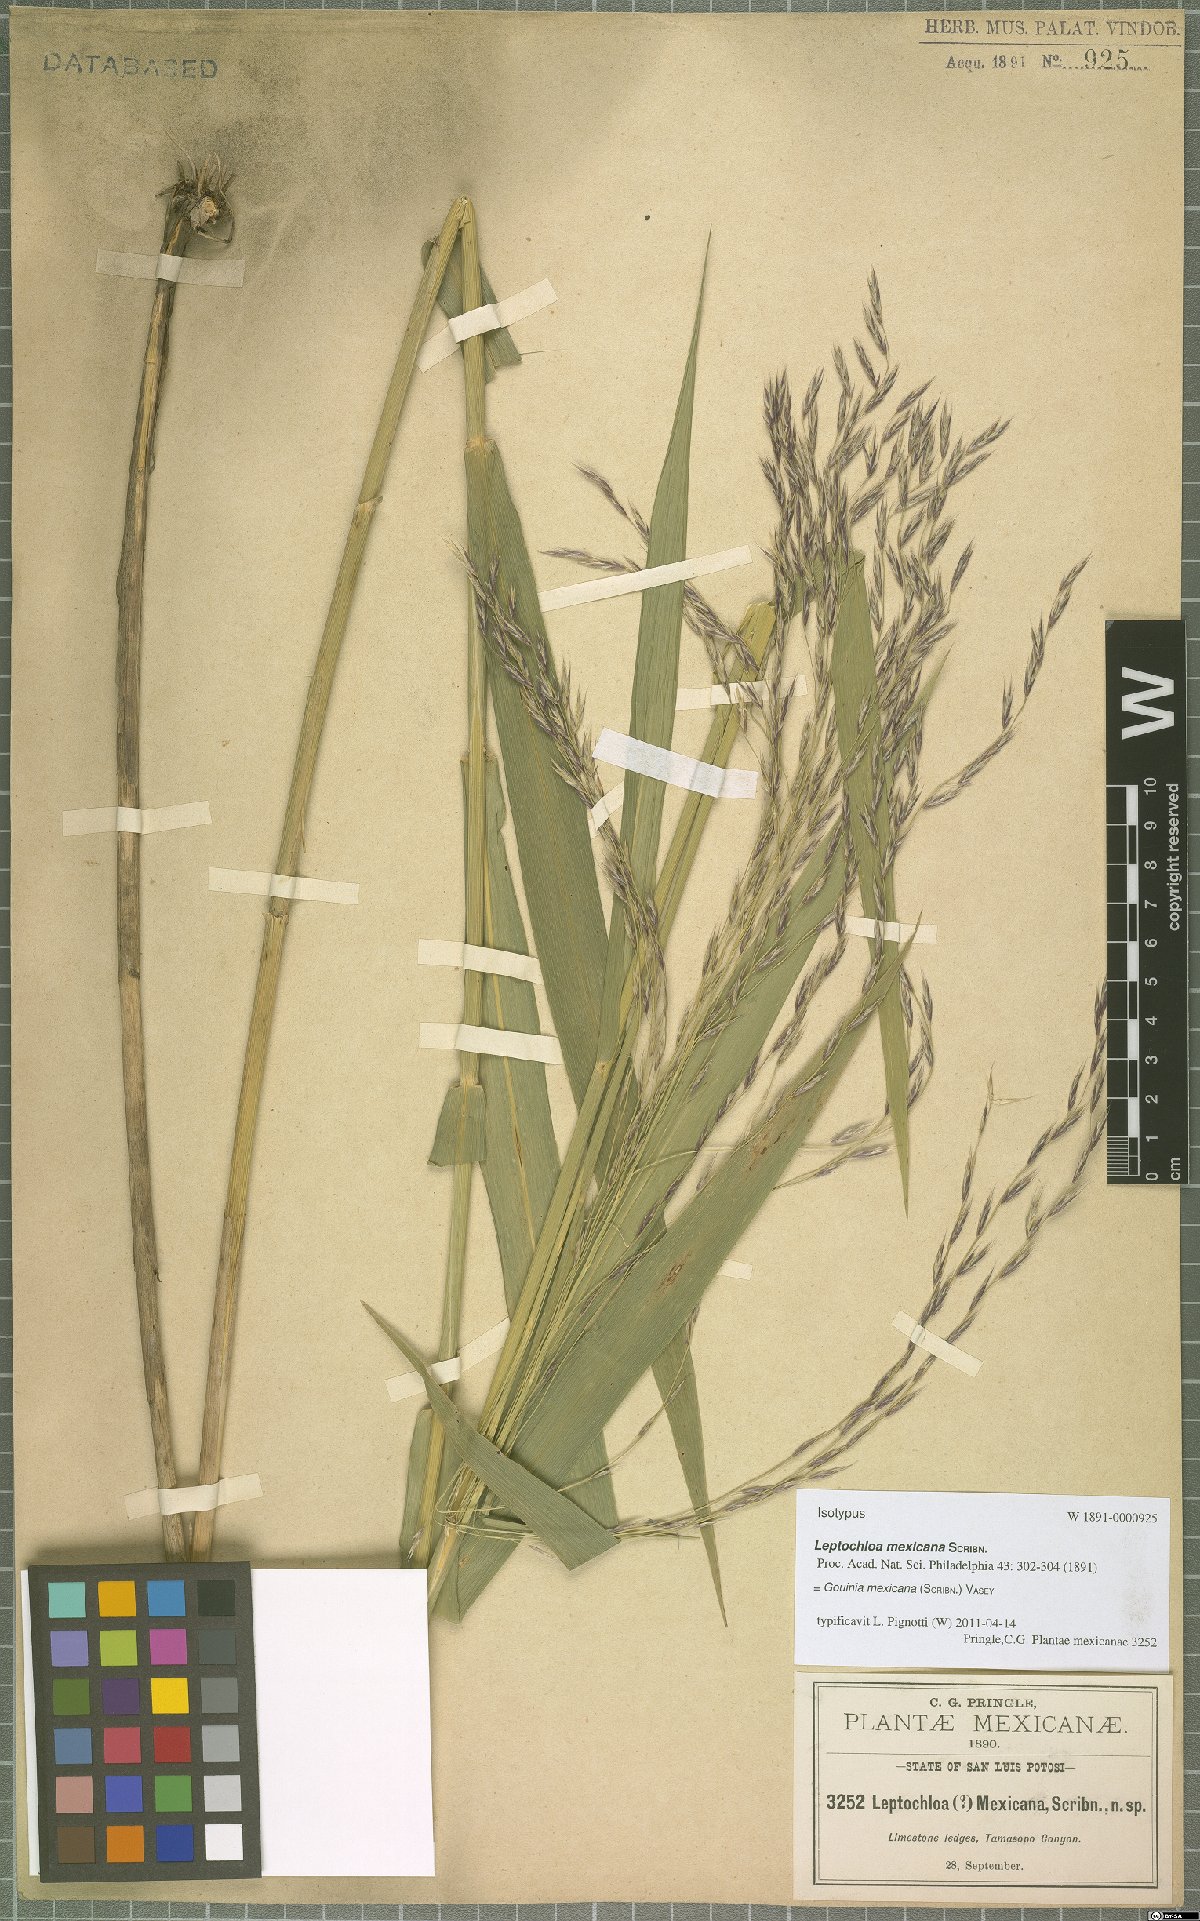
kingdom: Plantae
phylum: Tracheophyta
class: Liliopsida
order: Poales
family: Poaceae
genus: Gouinia
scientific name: Gouinia mexicana
